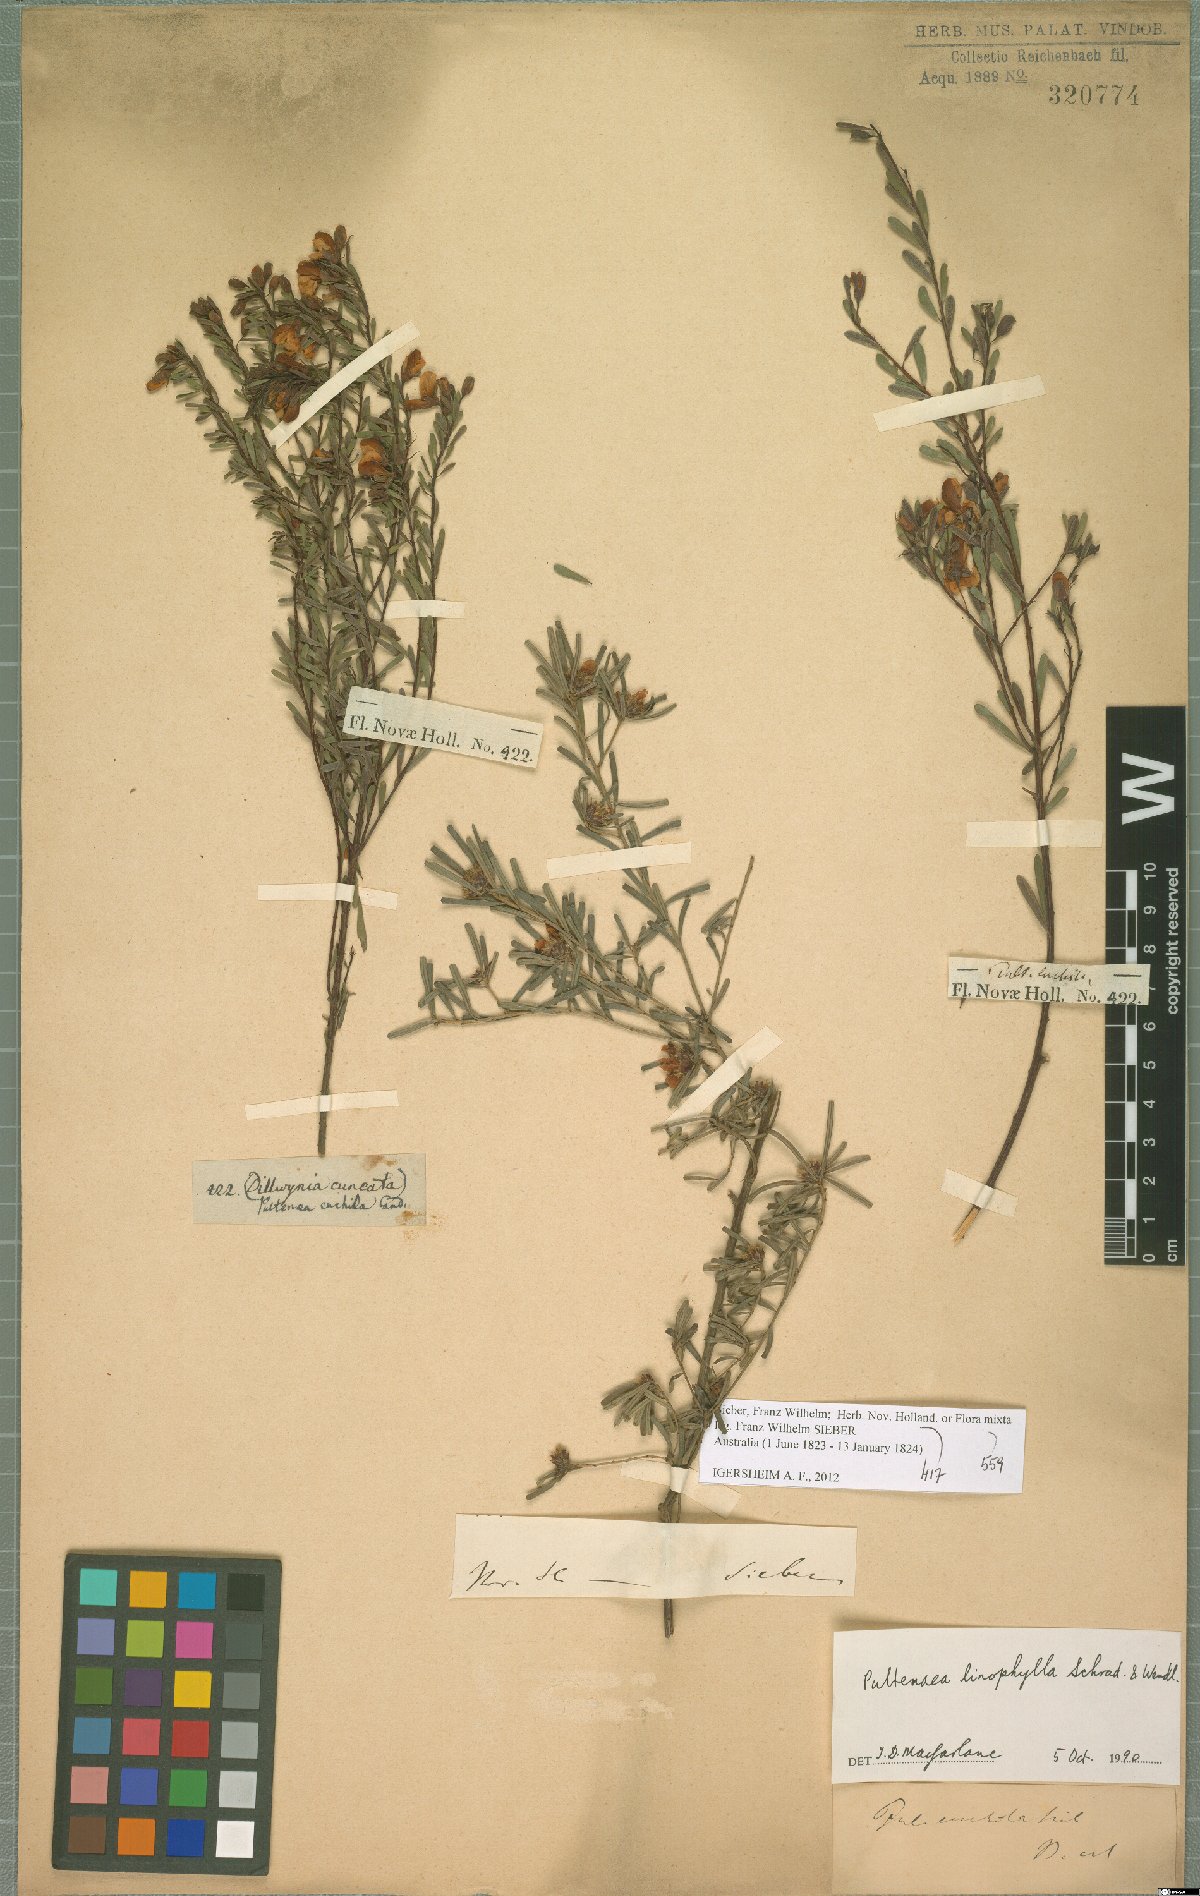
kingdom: Plantae
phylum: Tracheophyta
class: Magnoliopsida
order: Fabales
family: Fabaceae
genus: Pultenaea
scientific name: Pultenaea euchila
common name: Large-flower bush-pea
